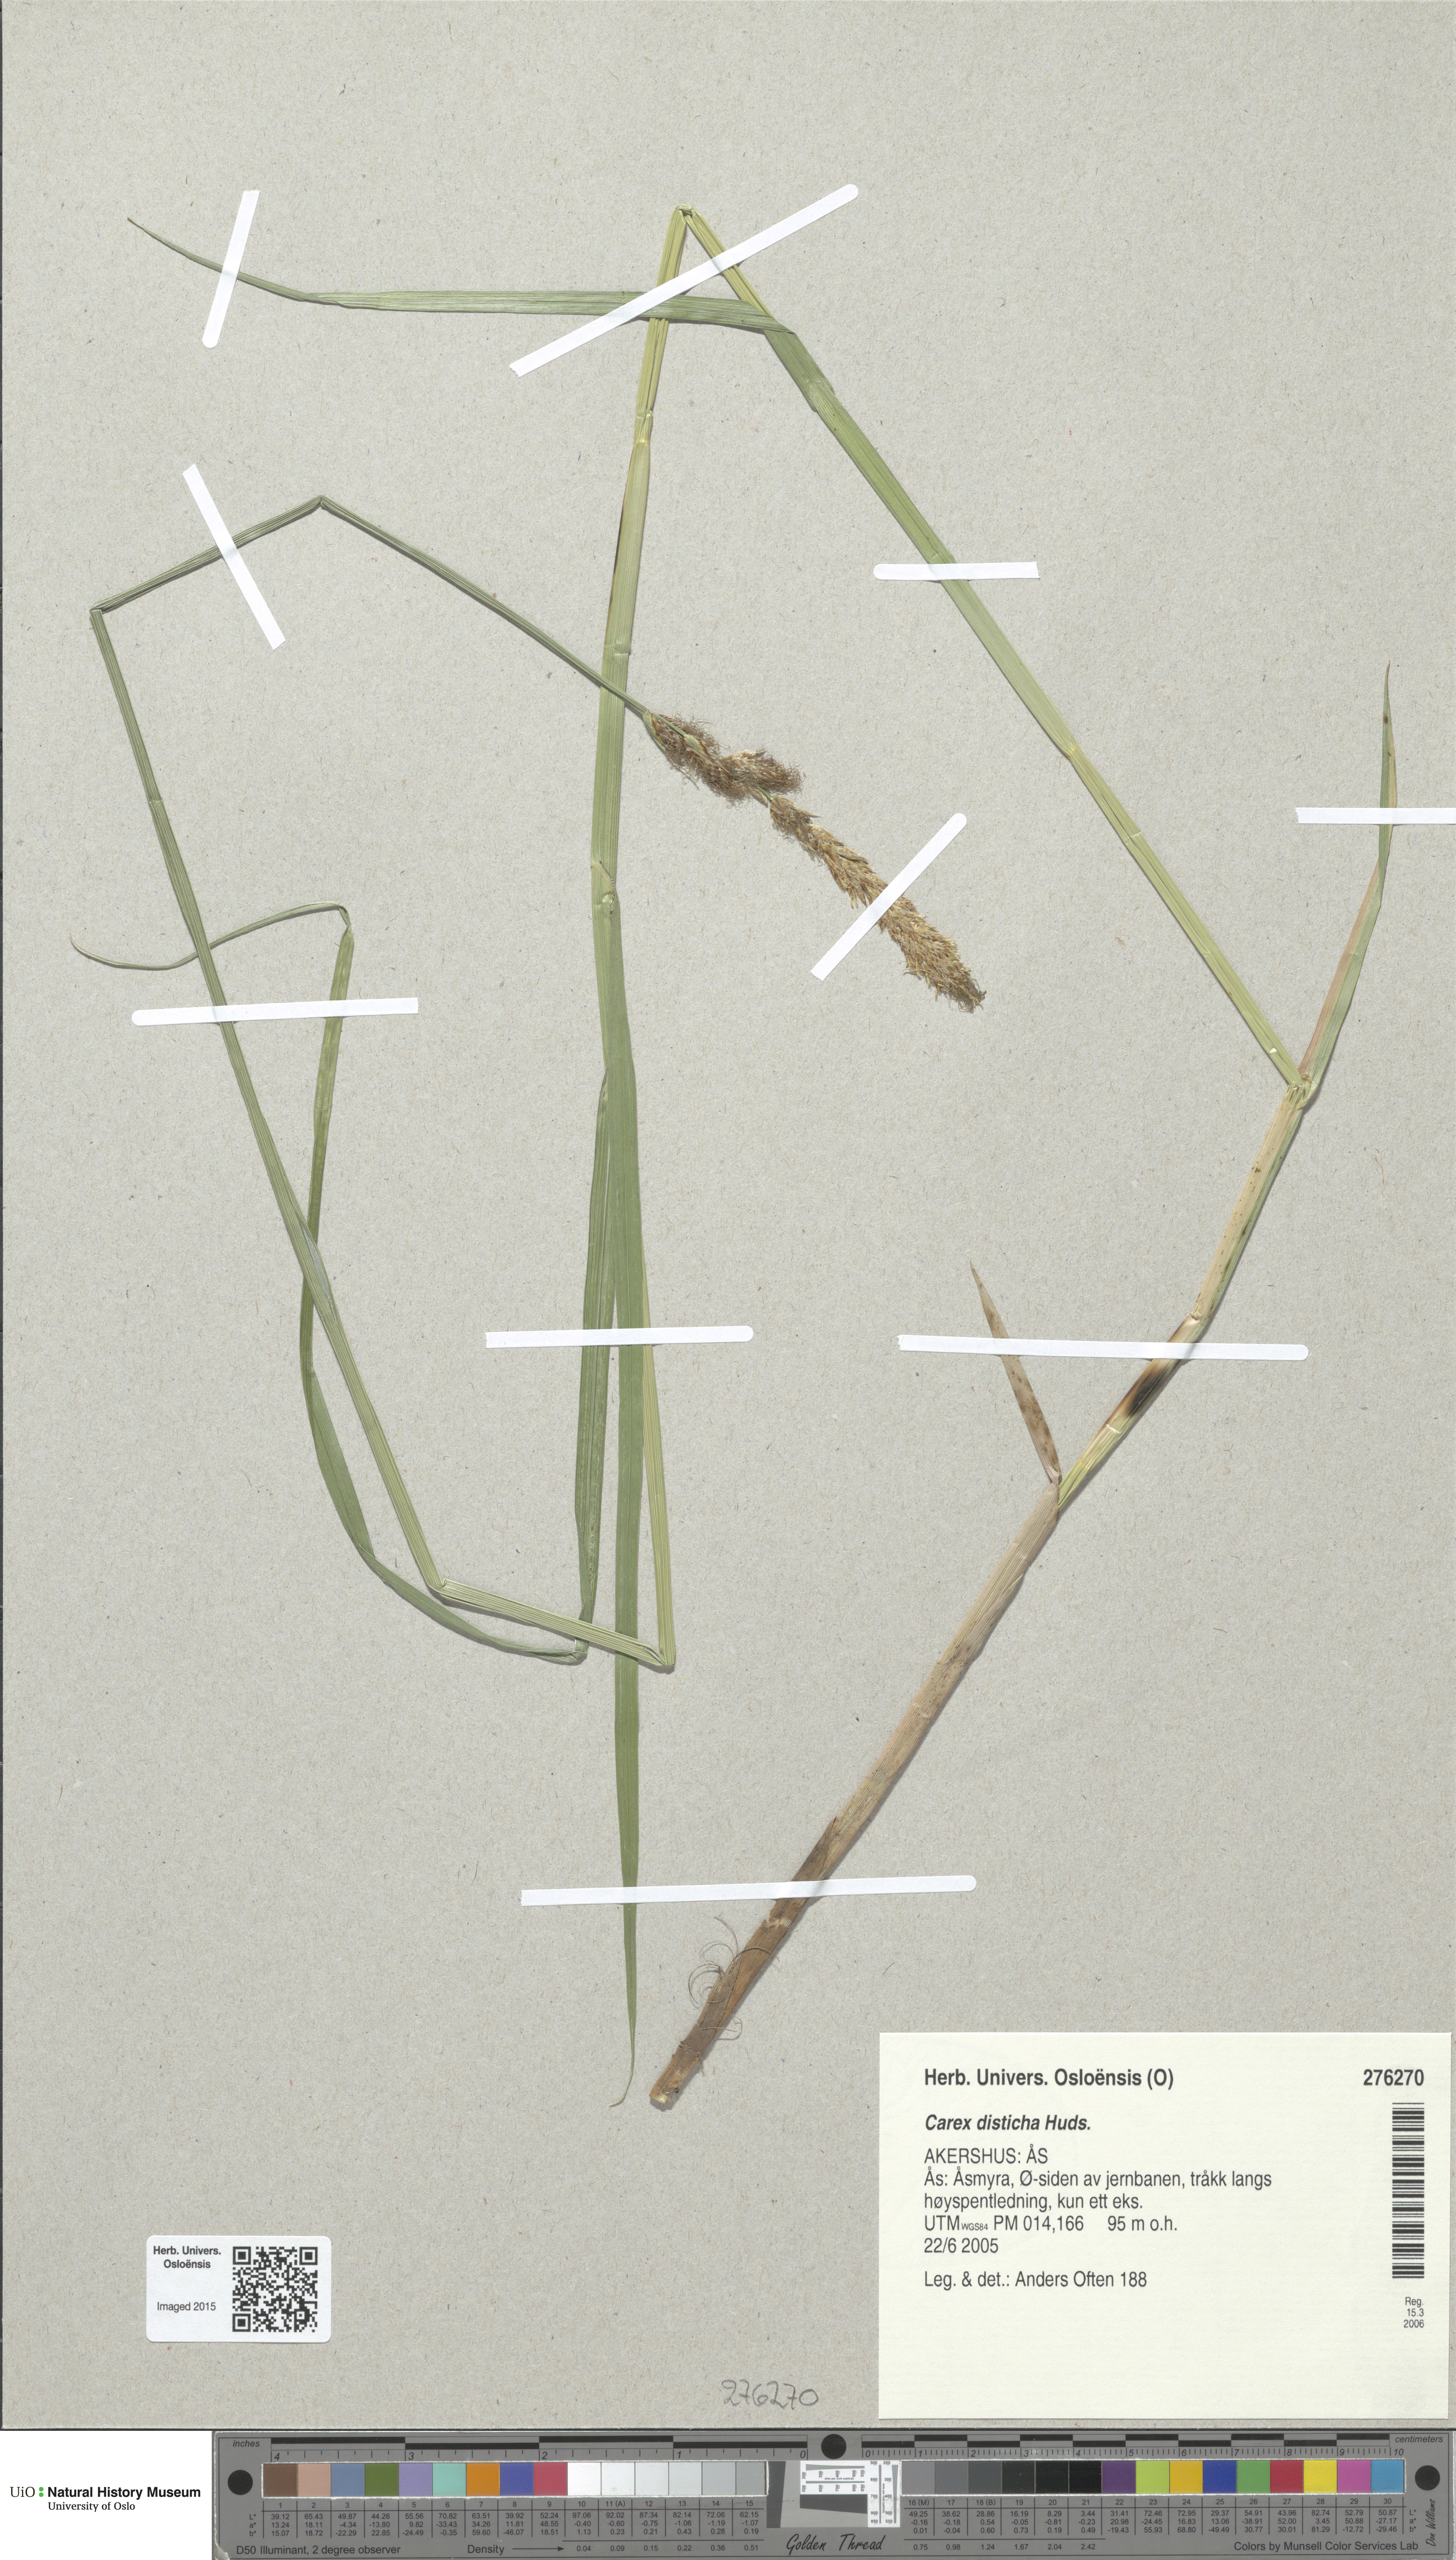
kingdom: Plantae
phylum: Tracheophyta
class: Liliopsida
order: Poales
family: Cyperaceae
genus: Carex
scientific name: Carex disticha
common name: Brown sedge
